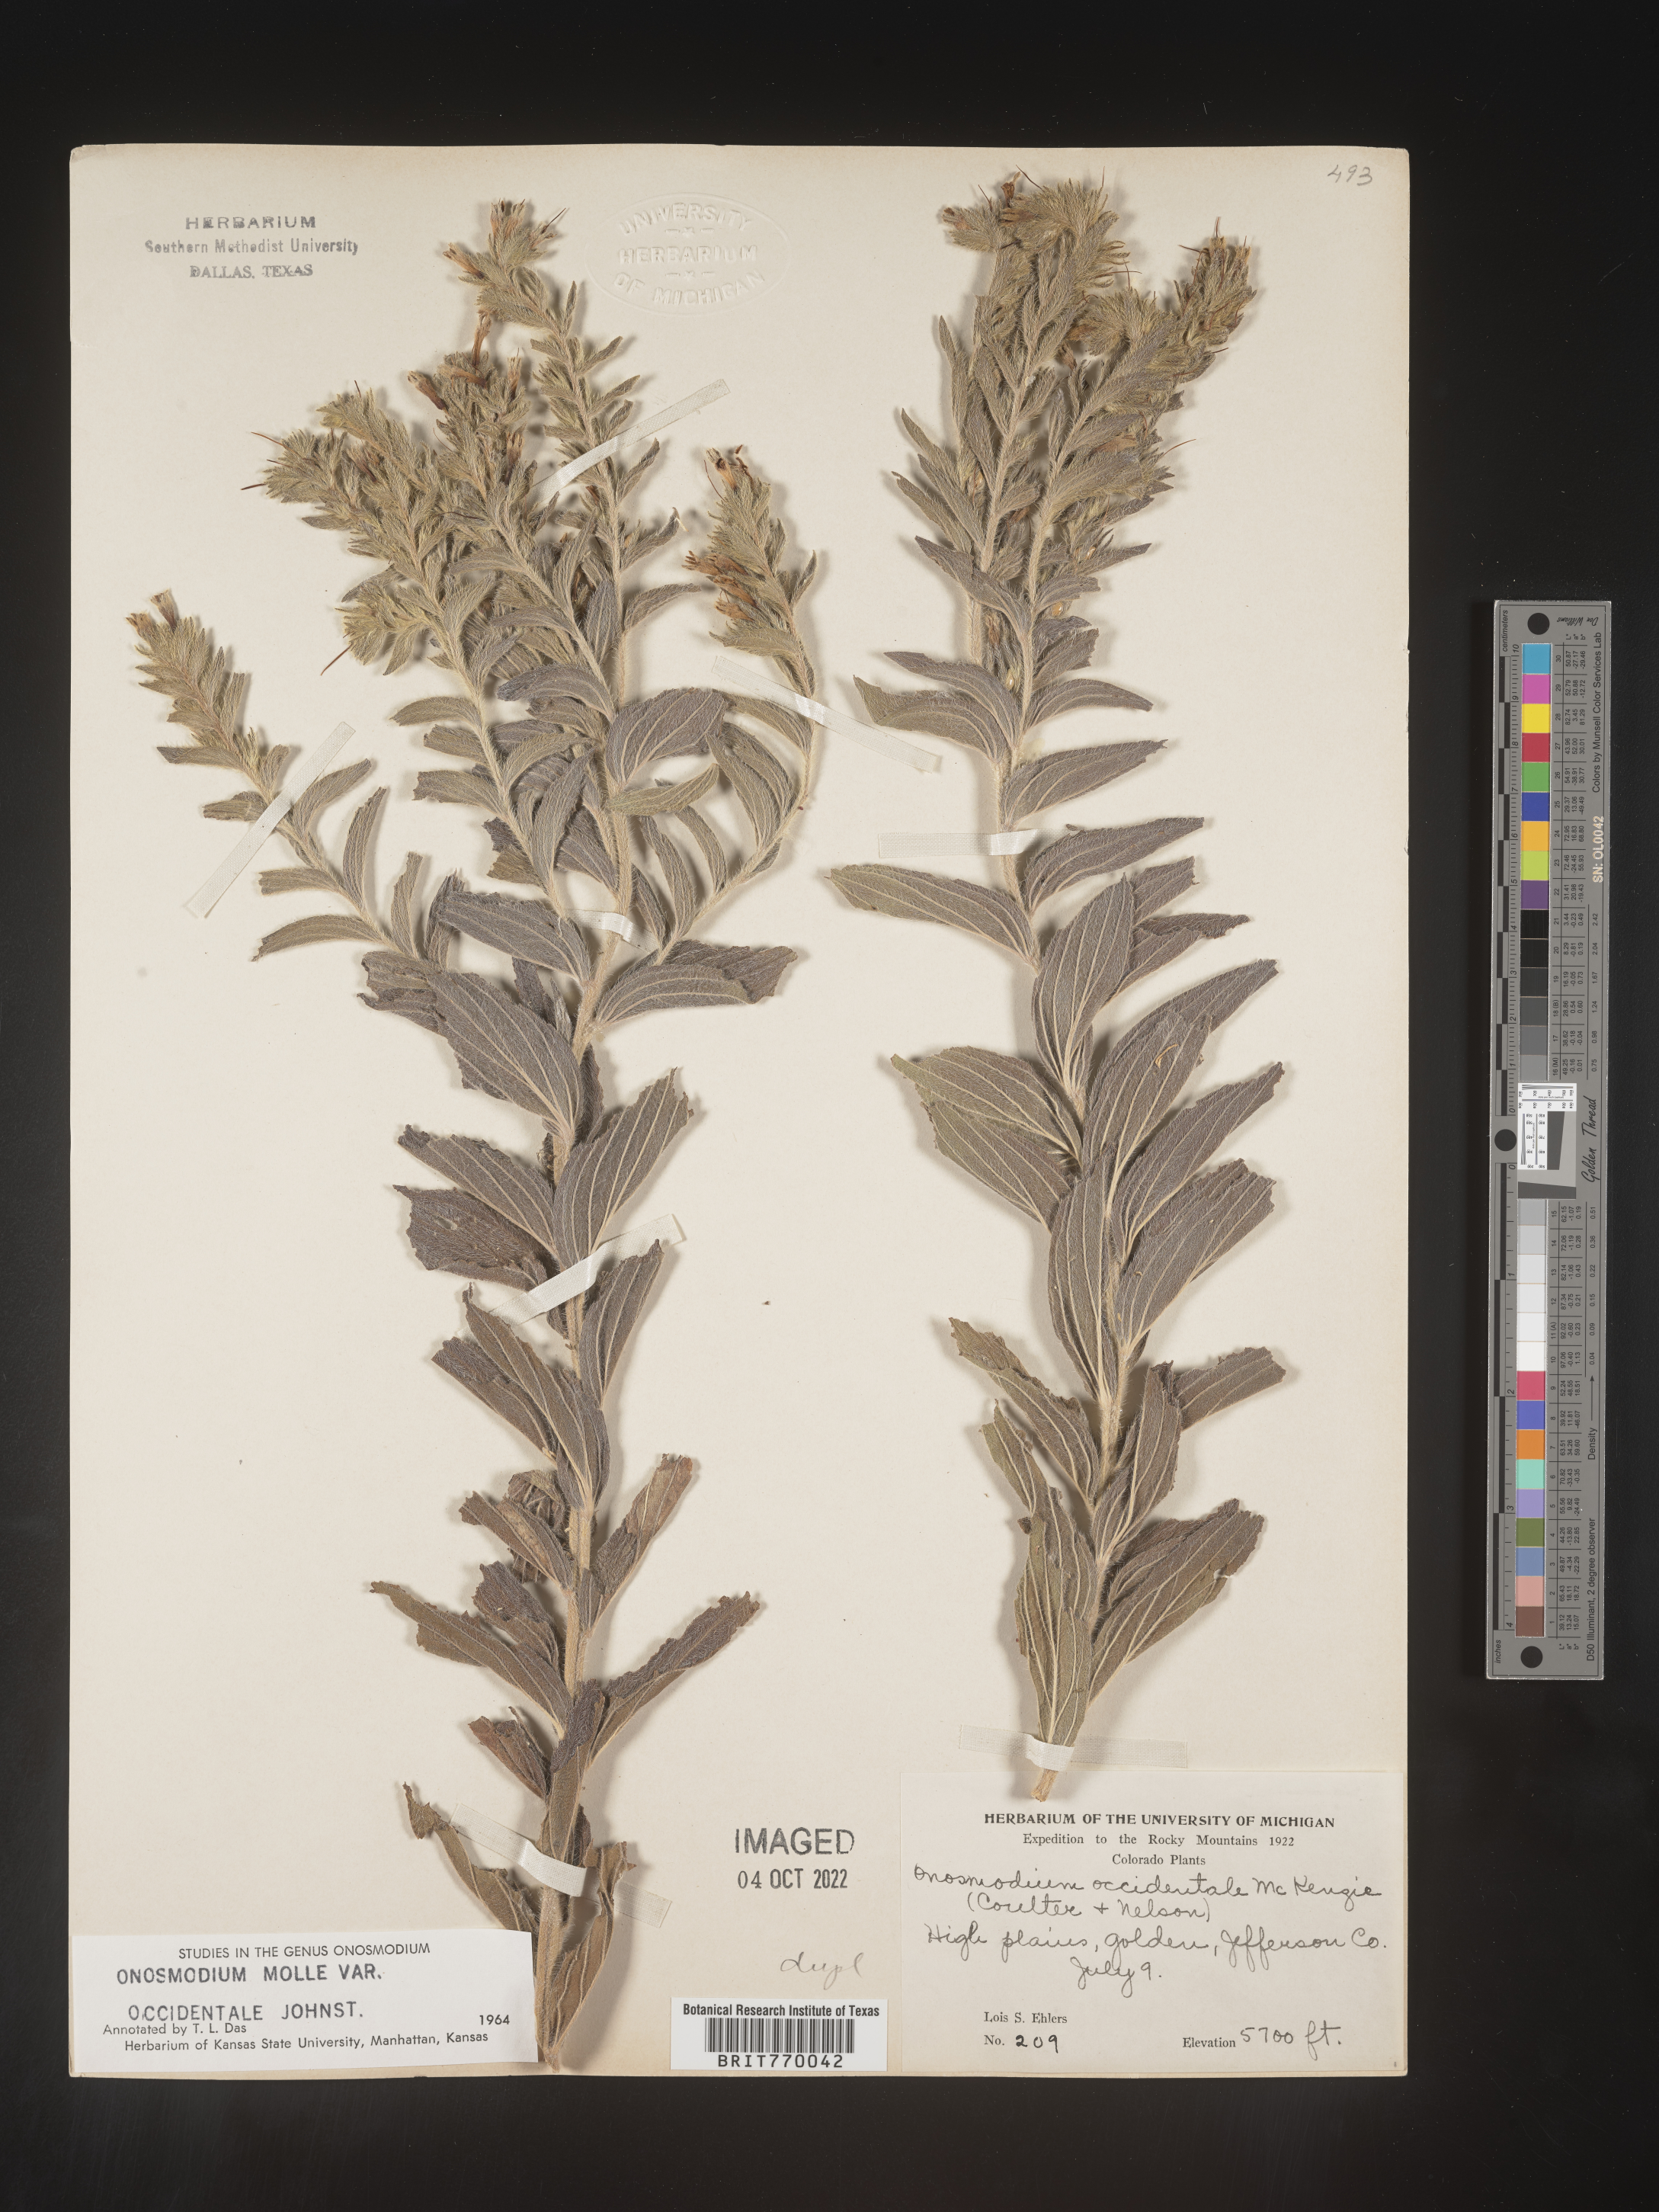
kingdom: Plantae
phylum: Tracheophyta
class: Magnoliopsida
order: Boraginales
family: Boraginaceae
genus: Lithospermum
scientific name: Lithospermum occidentale
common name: Western false gromwell
